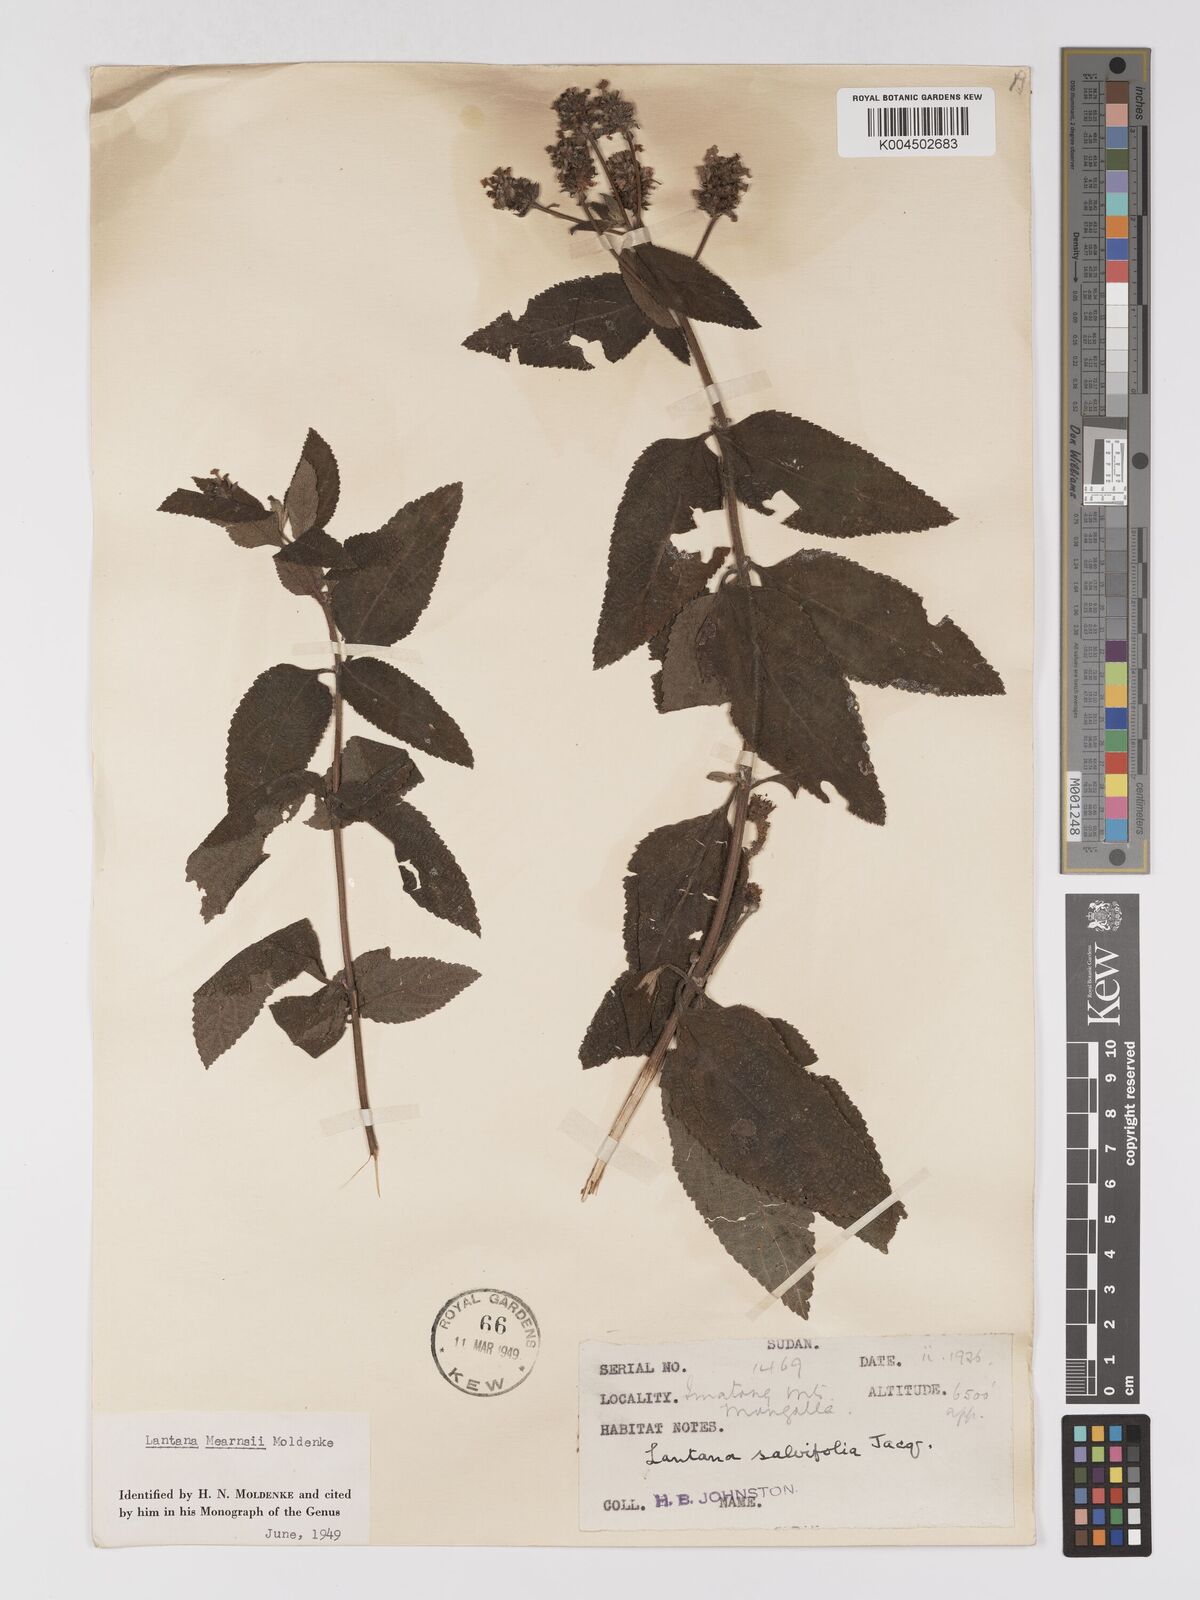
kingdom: Plantae
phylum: Tracheophyta
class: Magnoliopsida
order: Lamiales
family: Verbenaceae
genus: Lantana
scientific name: Lantana trifolia
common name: Sweet-sage
